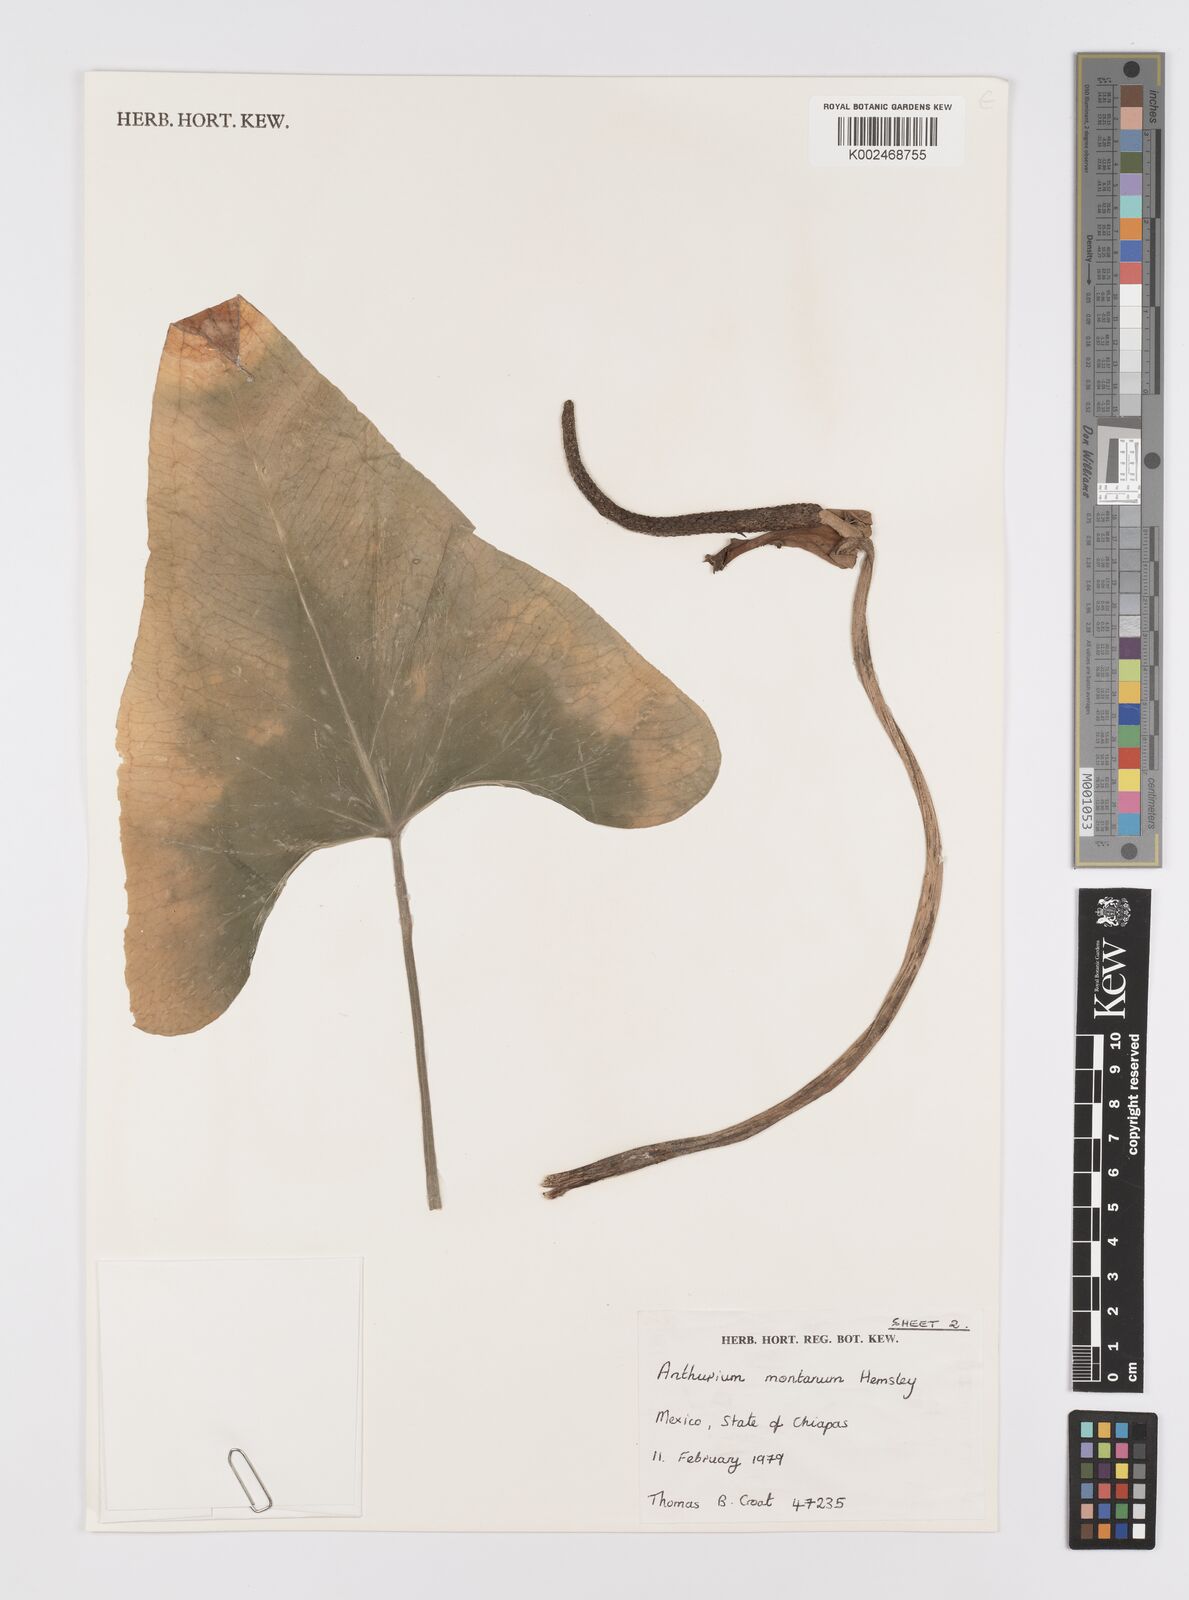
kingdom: Plantae
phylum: Tracheophyta
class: Liliopsida
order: Alismatales
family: Araceae
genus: Anthurium
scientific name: Anthurium montanum
